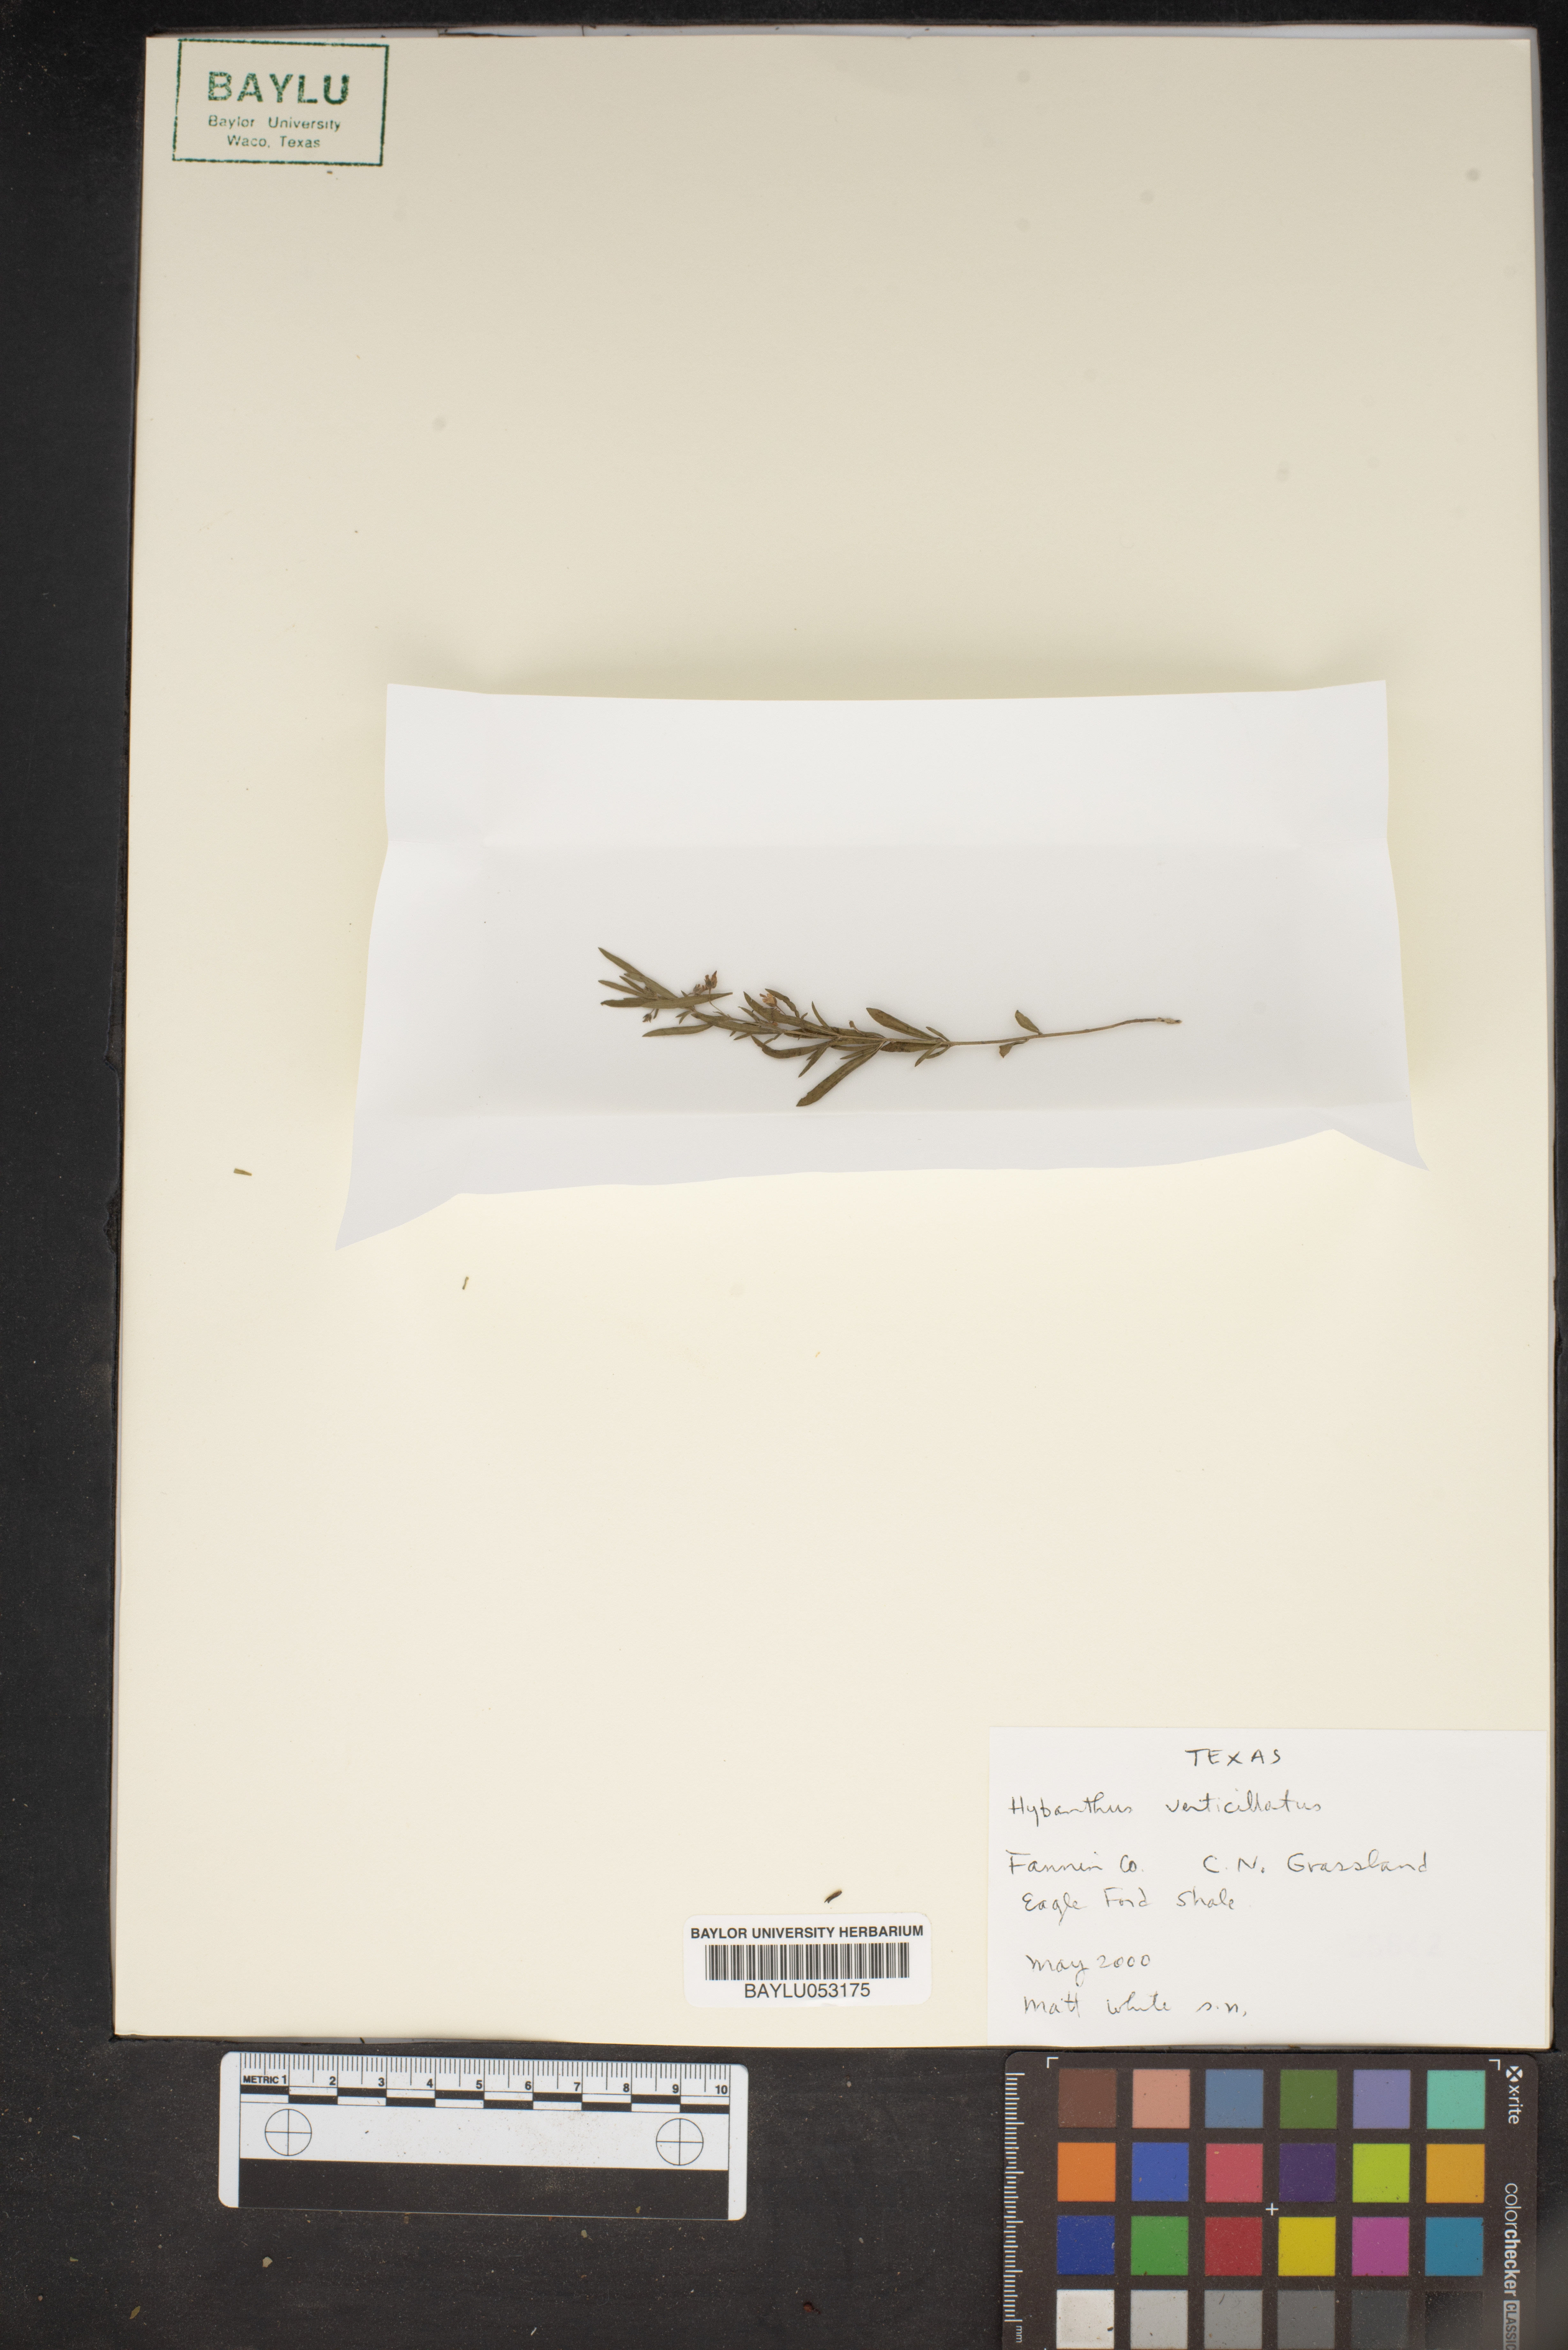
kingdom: Plantae
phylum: Tracheophyta
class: Magnoliopsida
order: Malpighiales
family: Violaceae
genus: Pombalia
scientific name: Pombalia verticillata
